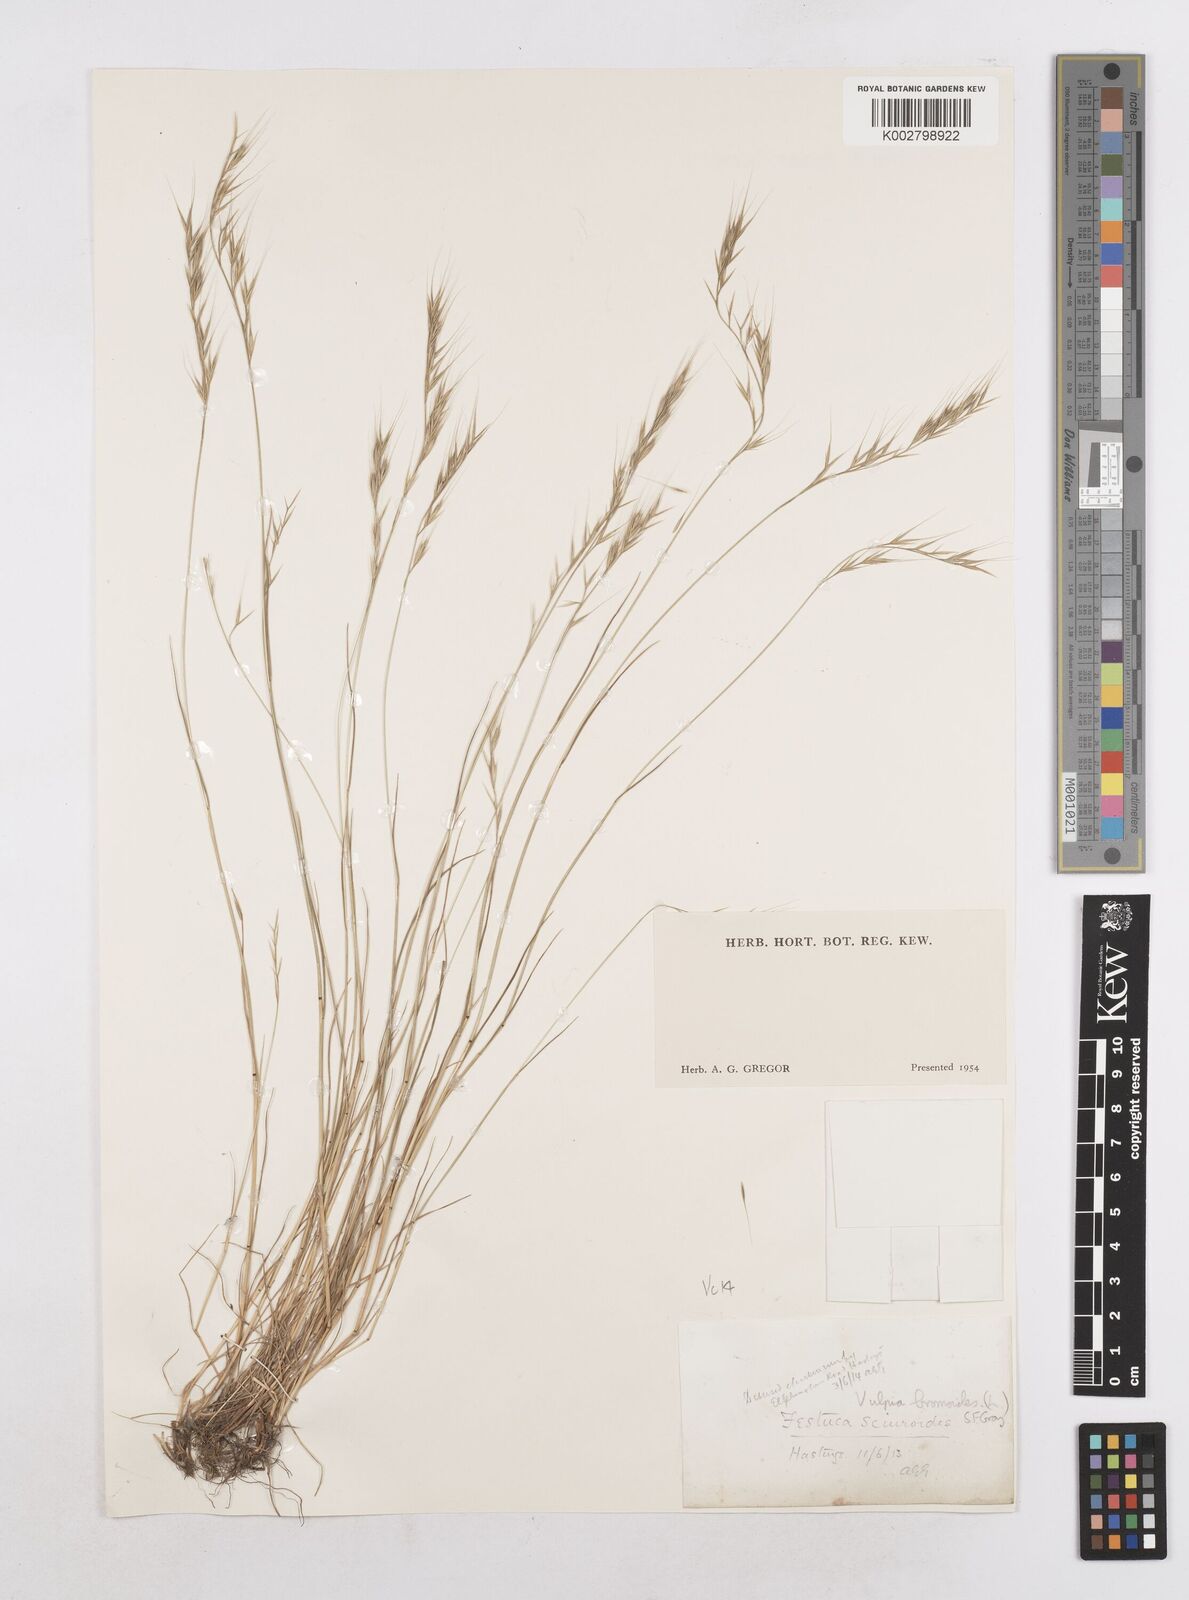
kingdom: Plantae
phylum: Tracheophyta
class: Liliopsida
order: Poales
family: Poaceae
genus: Festuca
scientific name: Festuca bromoides
